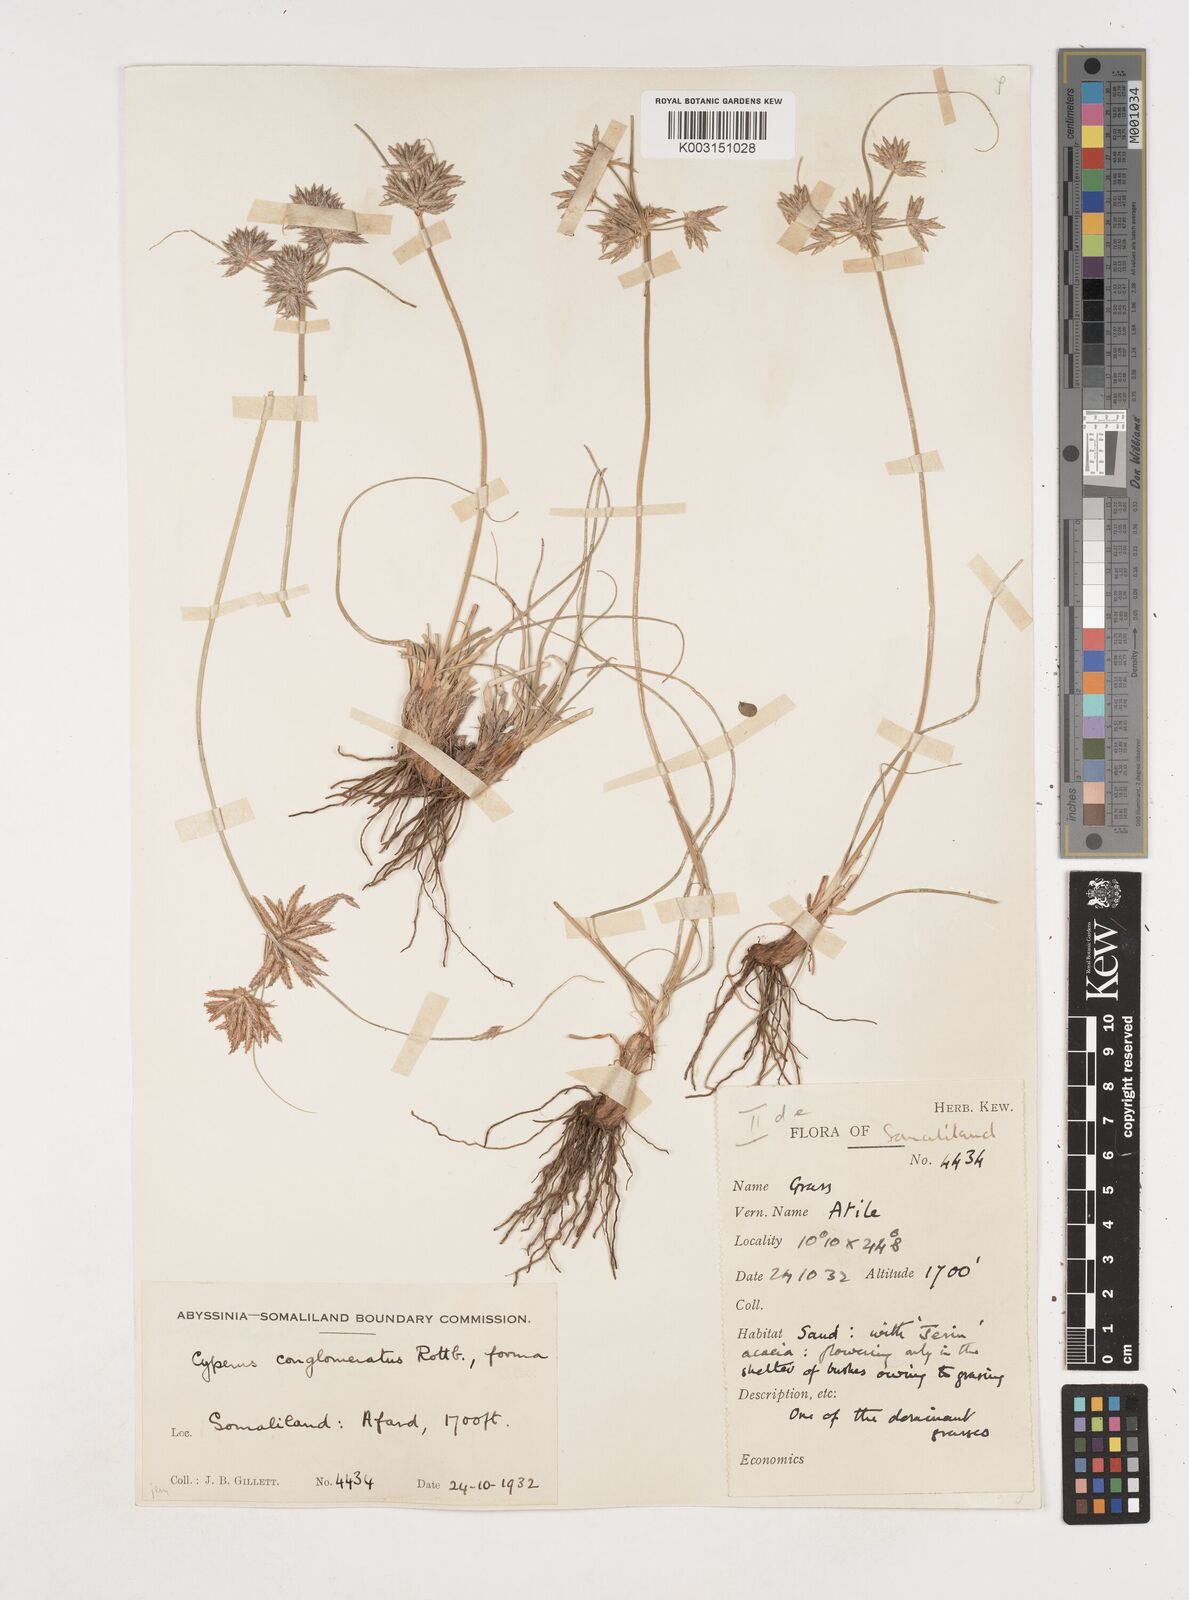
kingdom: Plantae
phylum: Tracheophyta
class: Liliopsida
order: Poales
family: Cyperaceae
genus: Cyperus
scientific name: Cyperus conglomeratus
